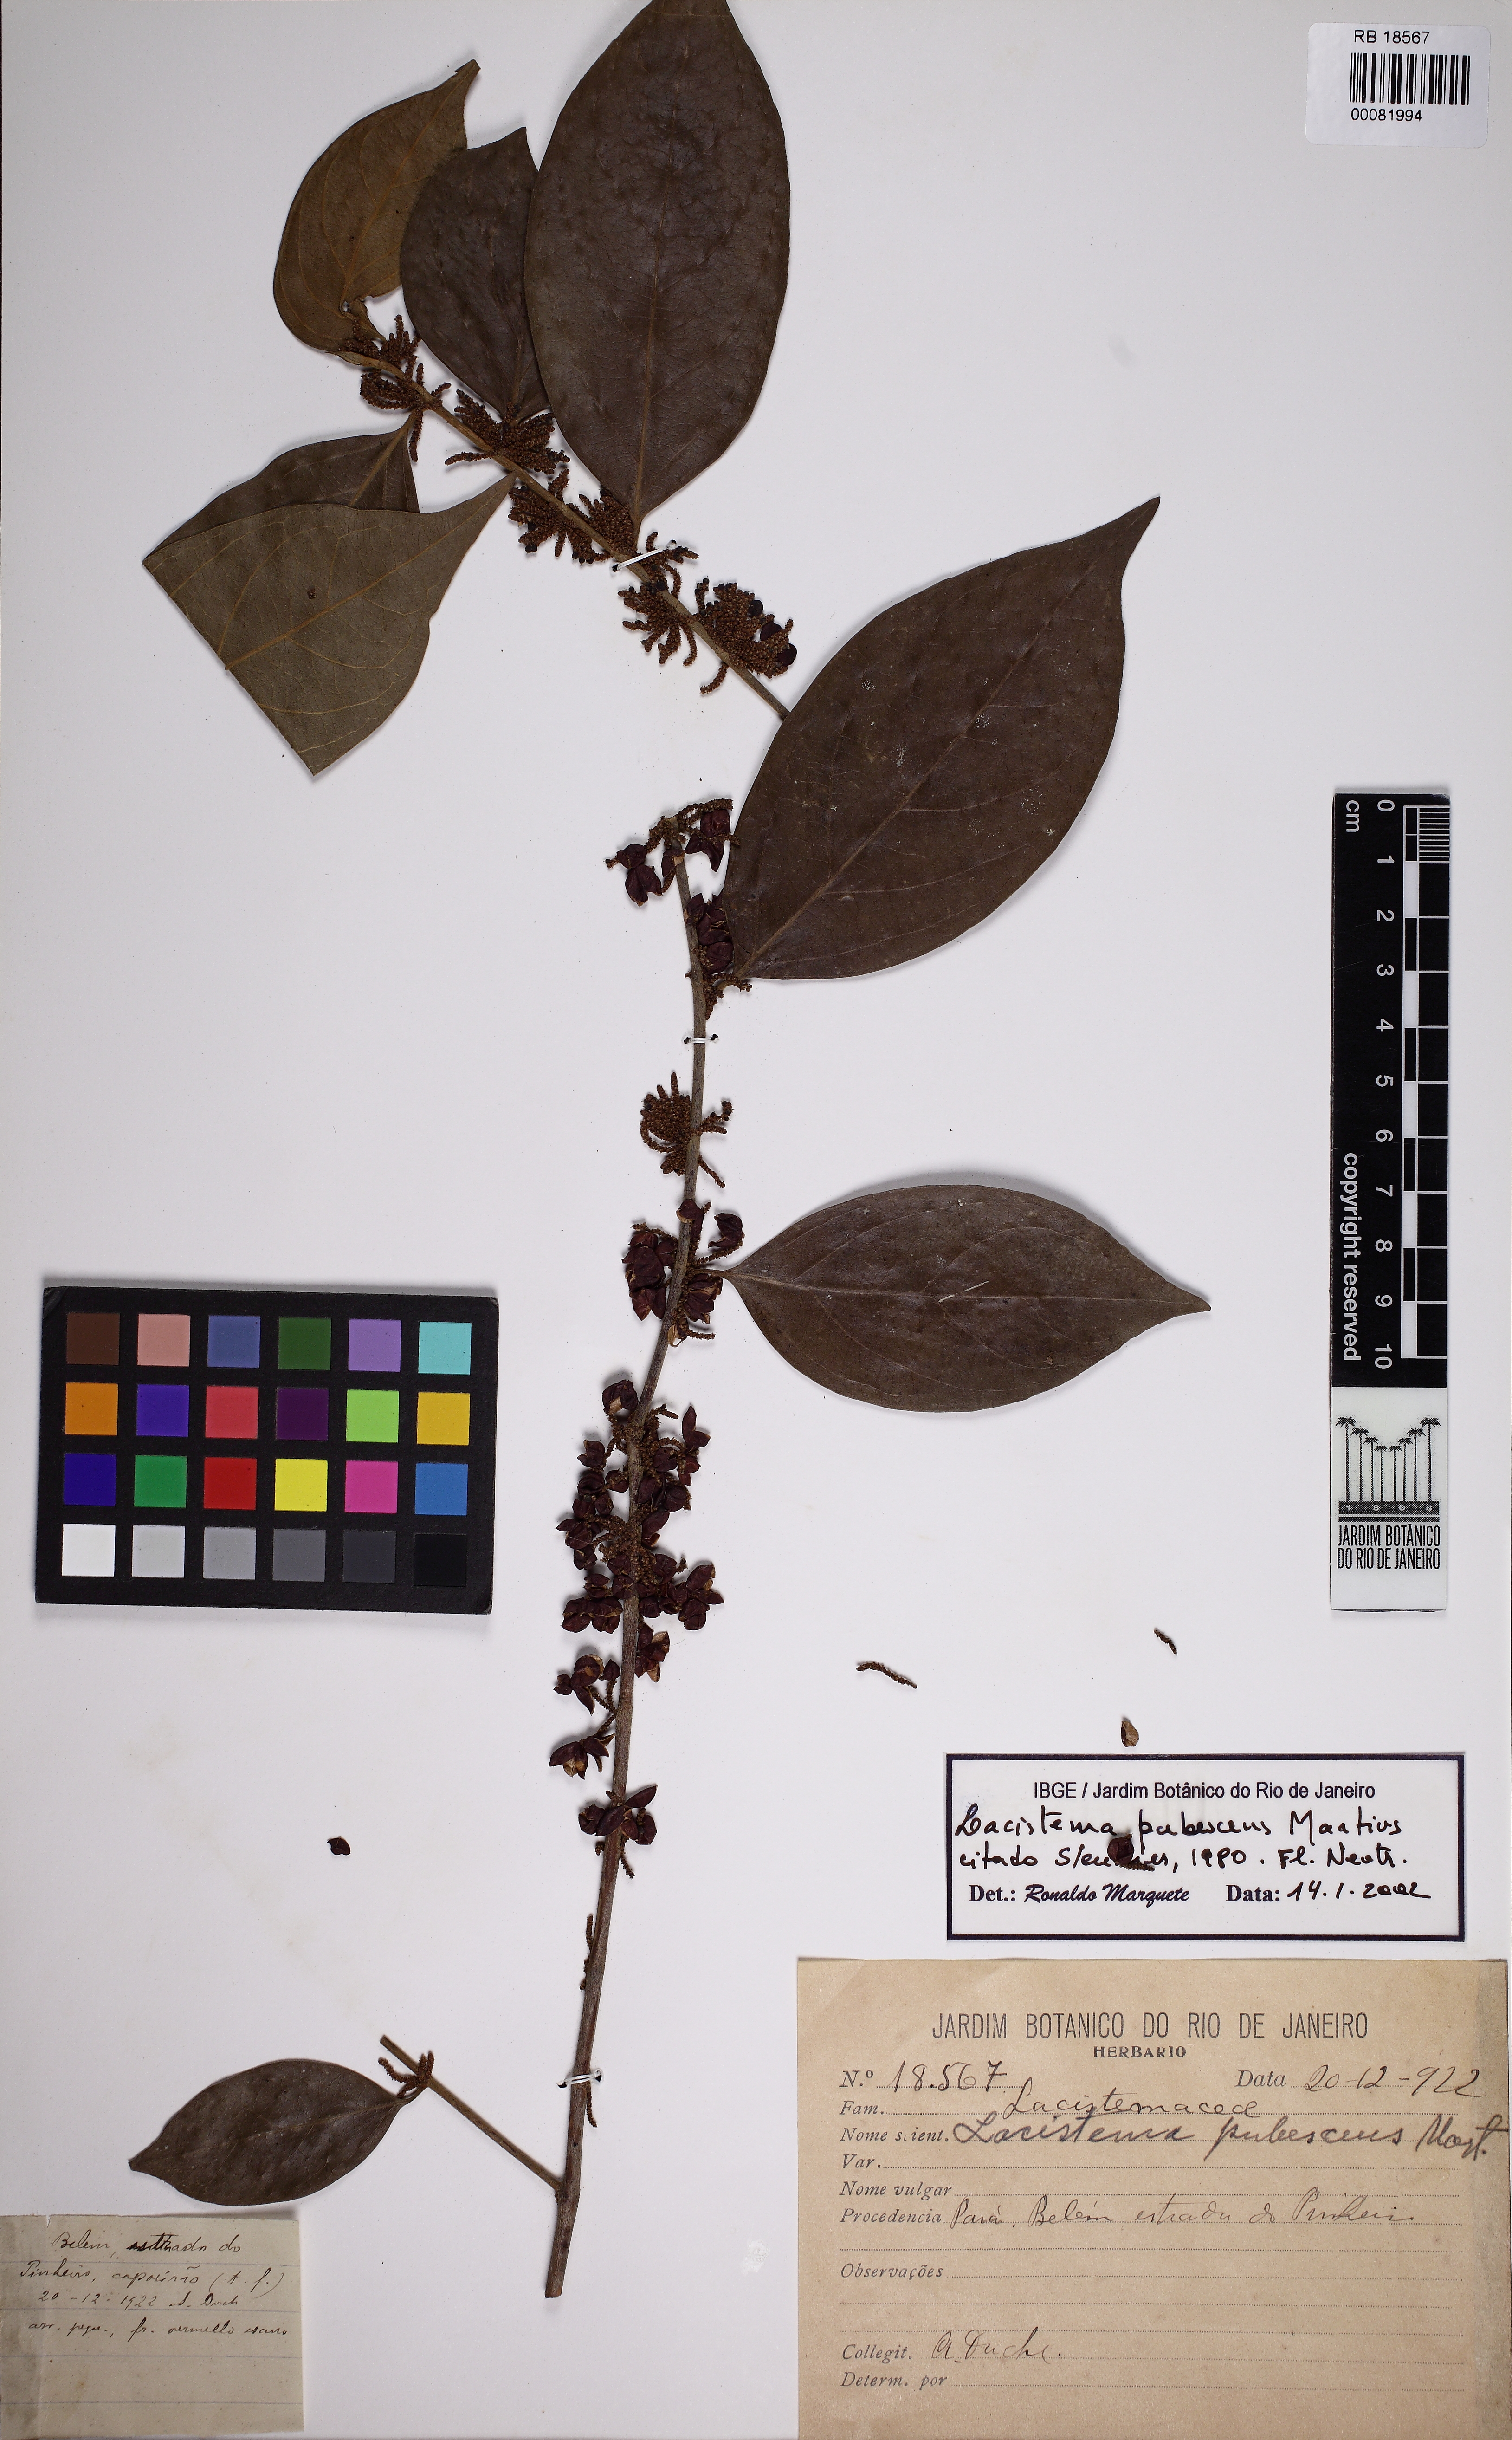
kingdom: Plantae
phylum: Tracheophyta
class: Magnoliopsida
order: Malpighiales
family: Lacistemataceae
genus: Lacistema
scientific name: Lacistema pubescens
